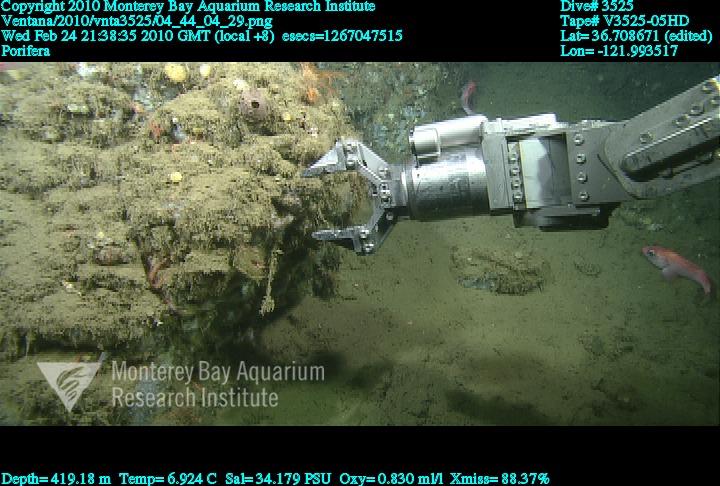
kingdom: Animalia
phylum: Porifera
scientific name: Porifera
